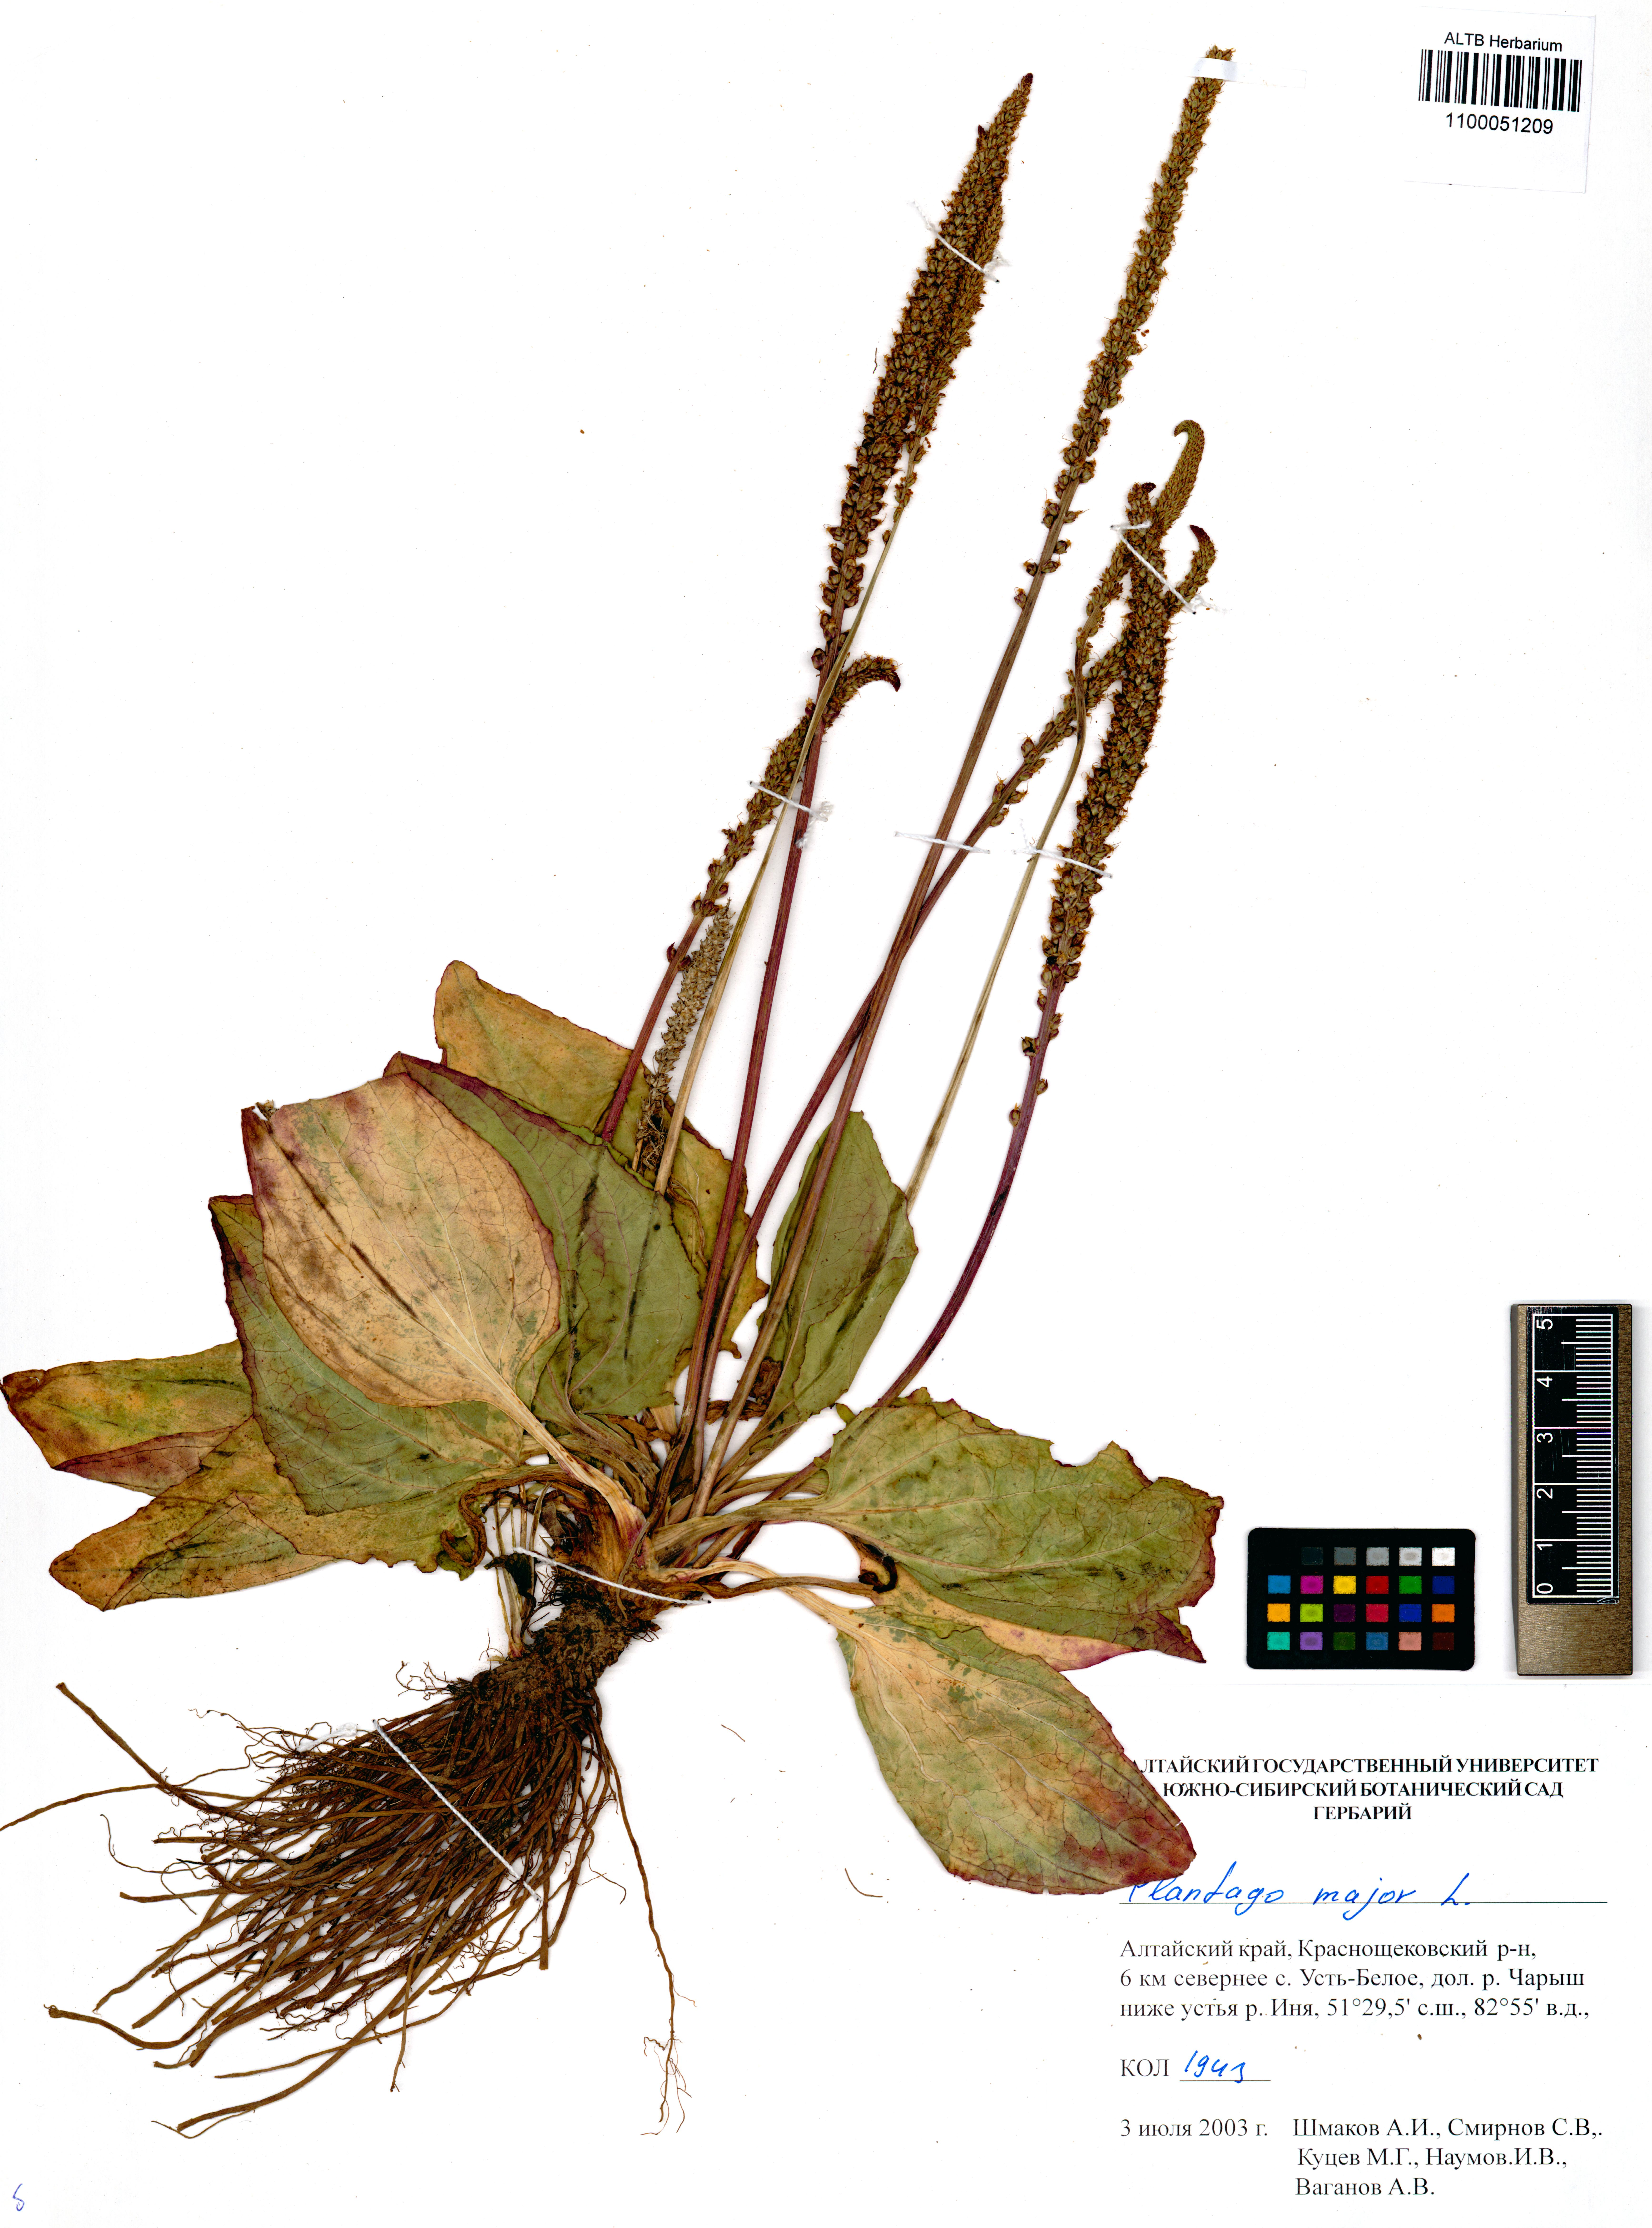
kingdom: Plantae
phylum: Tracheophyta
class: Magnoliopsida
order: Lamiales
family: Plantaginaceae
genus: Plantago
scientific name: Plantago major
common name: Common plantain
